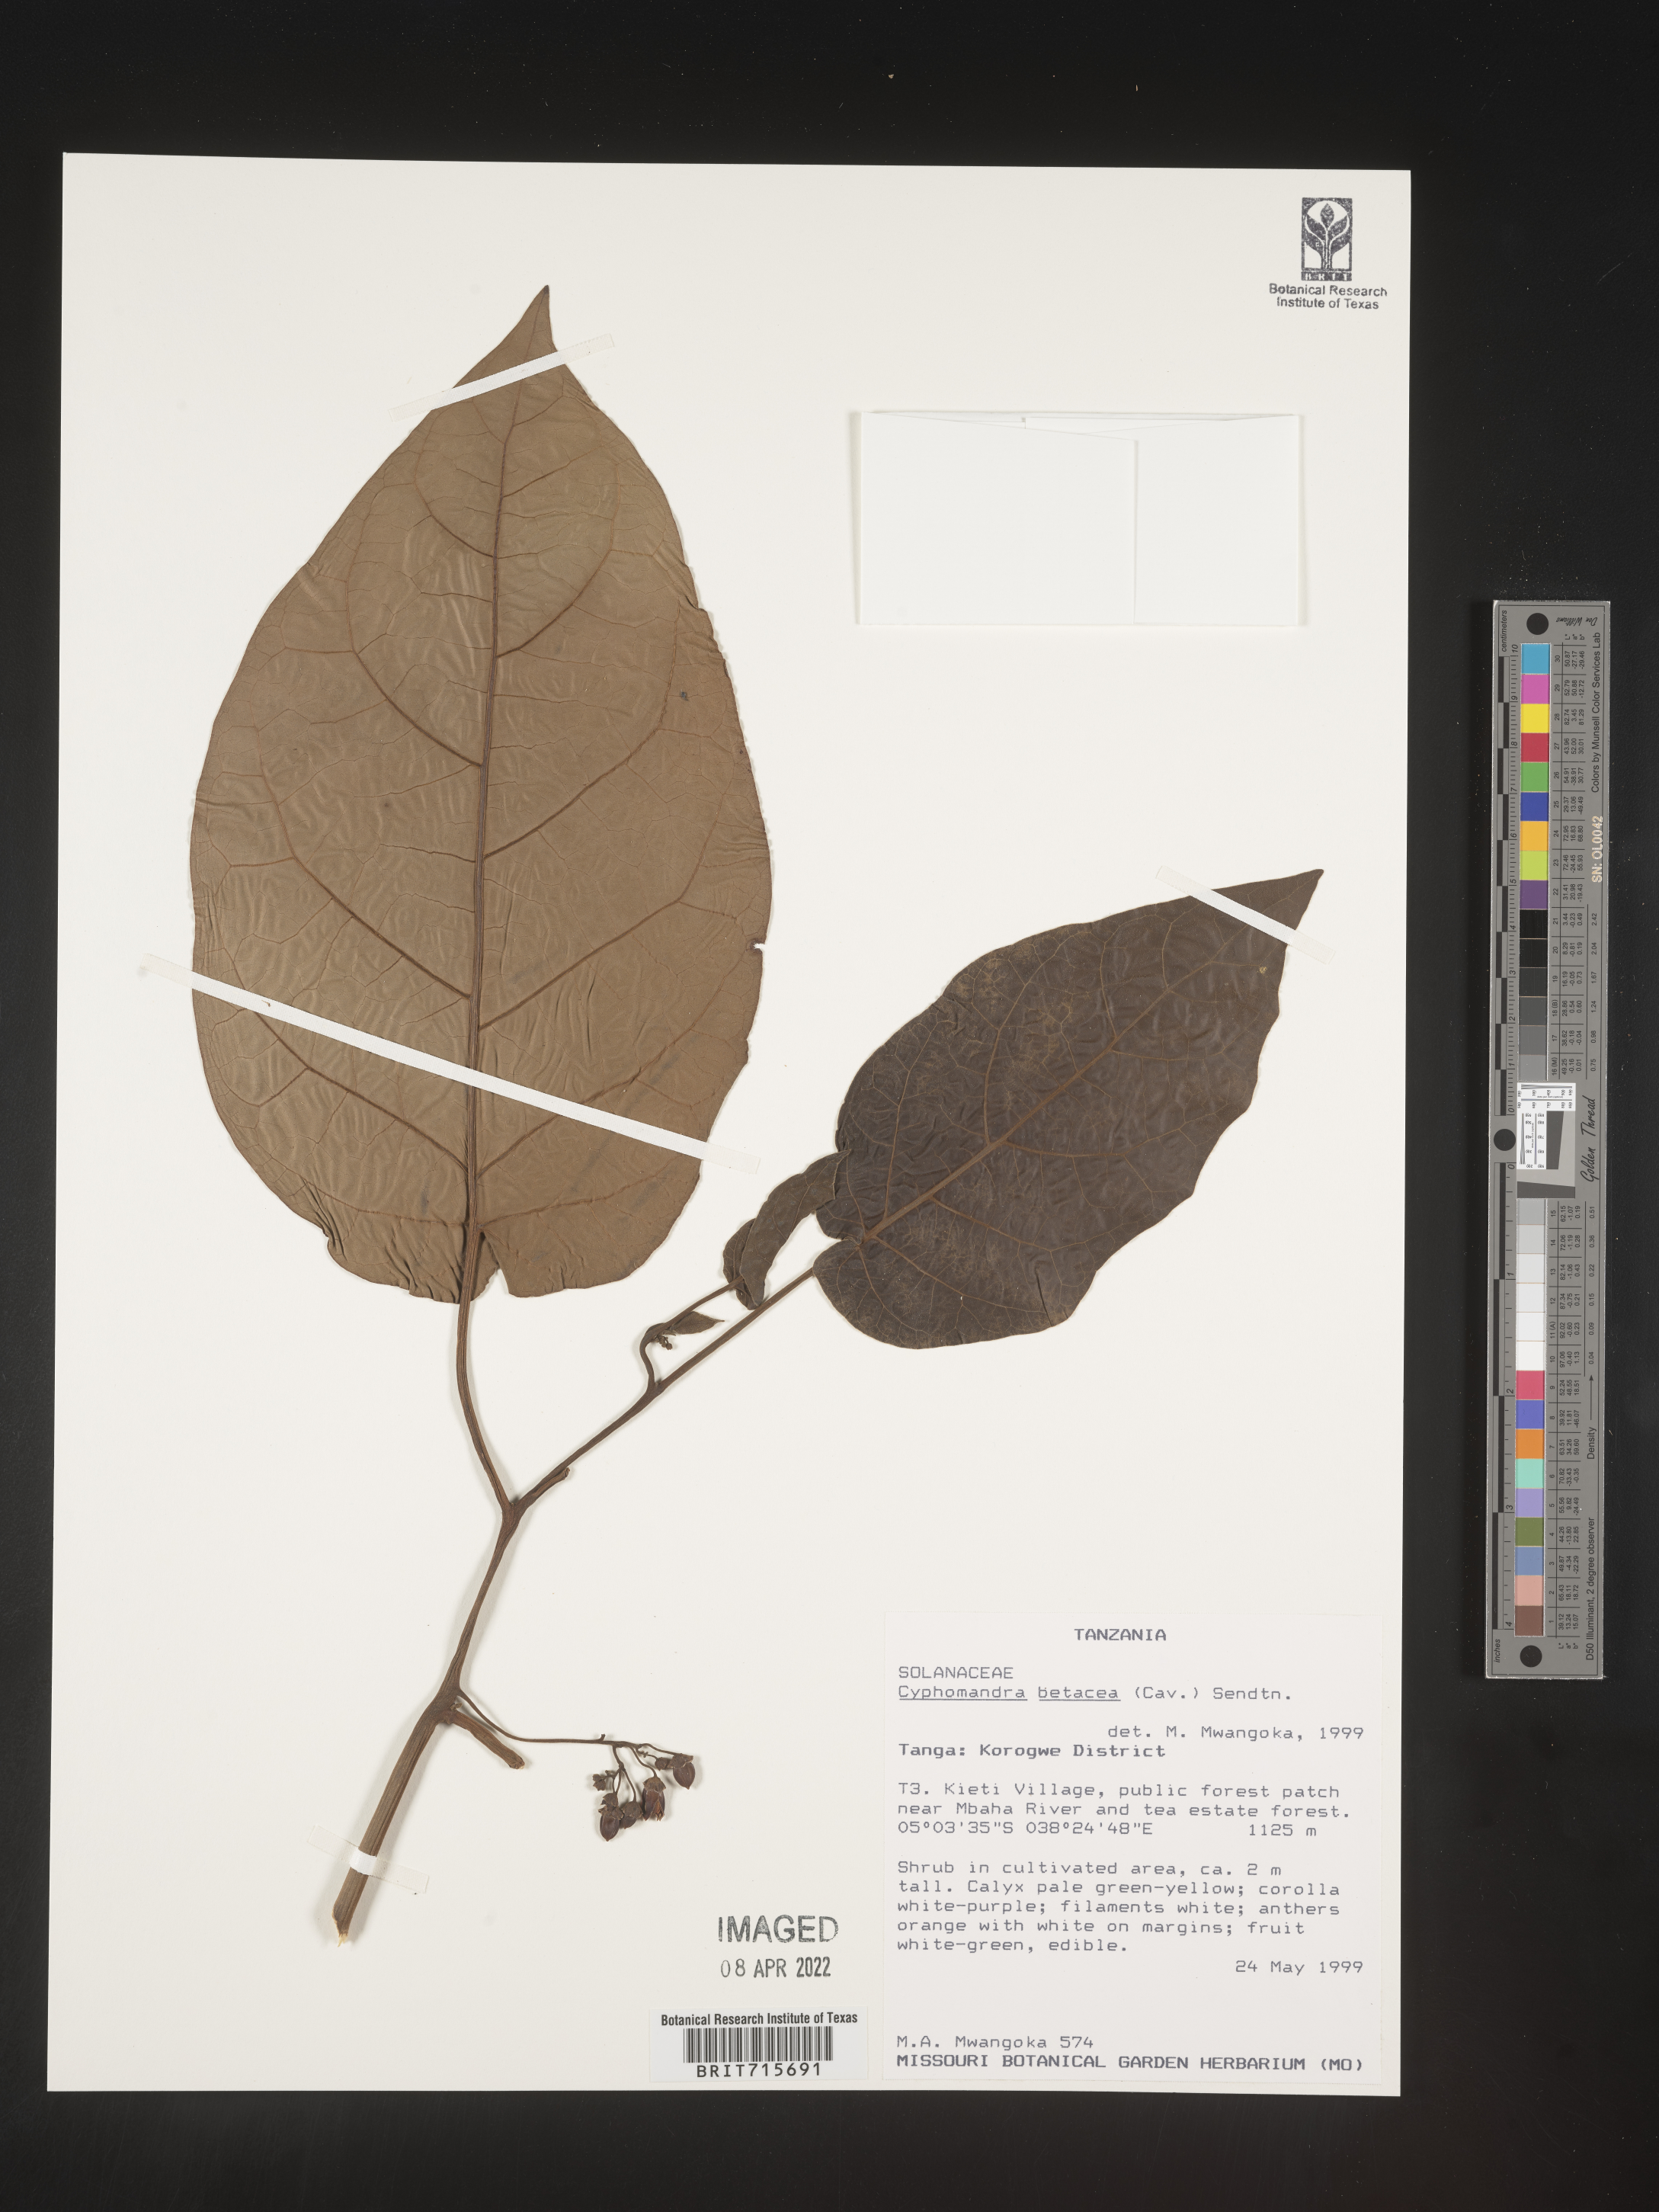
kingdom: Plantae
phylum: Tracheophyta
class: Magnoliopsida
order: Solanales
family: Solanaceae
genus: Solanum
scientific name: Solanum
